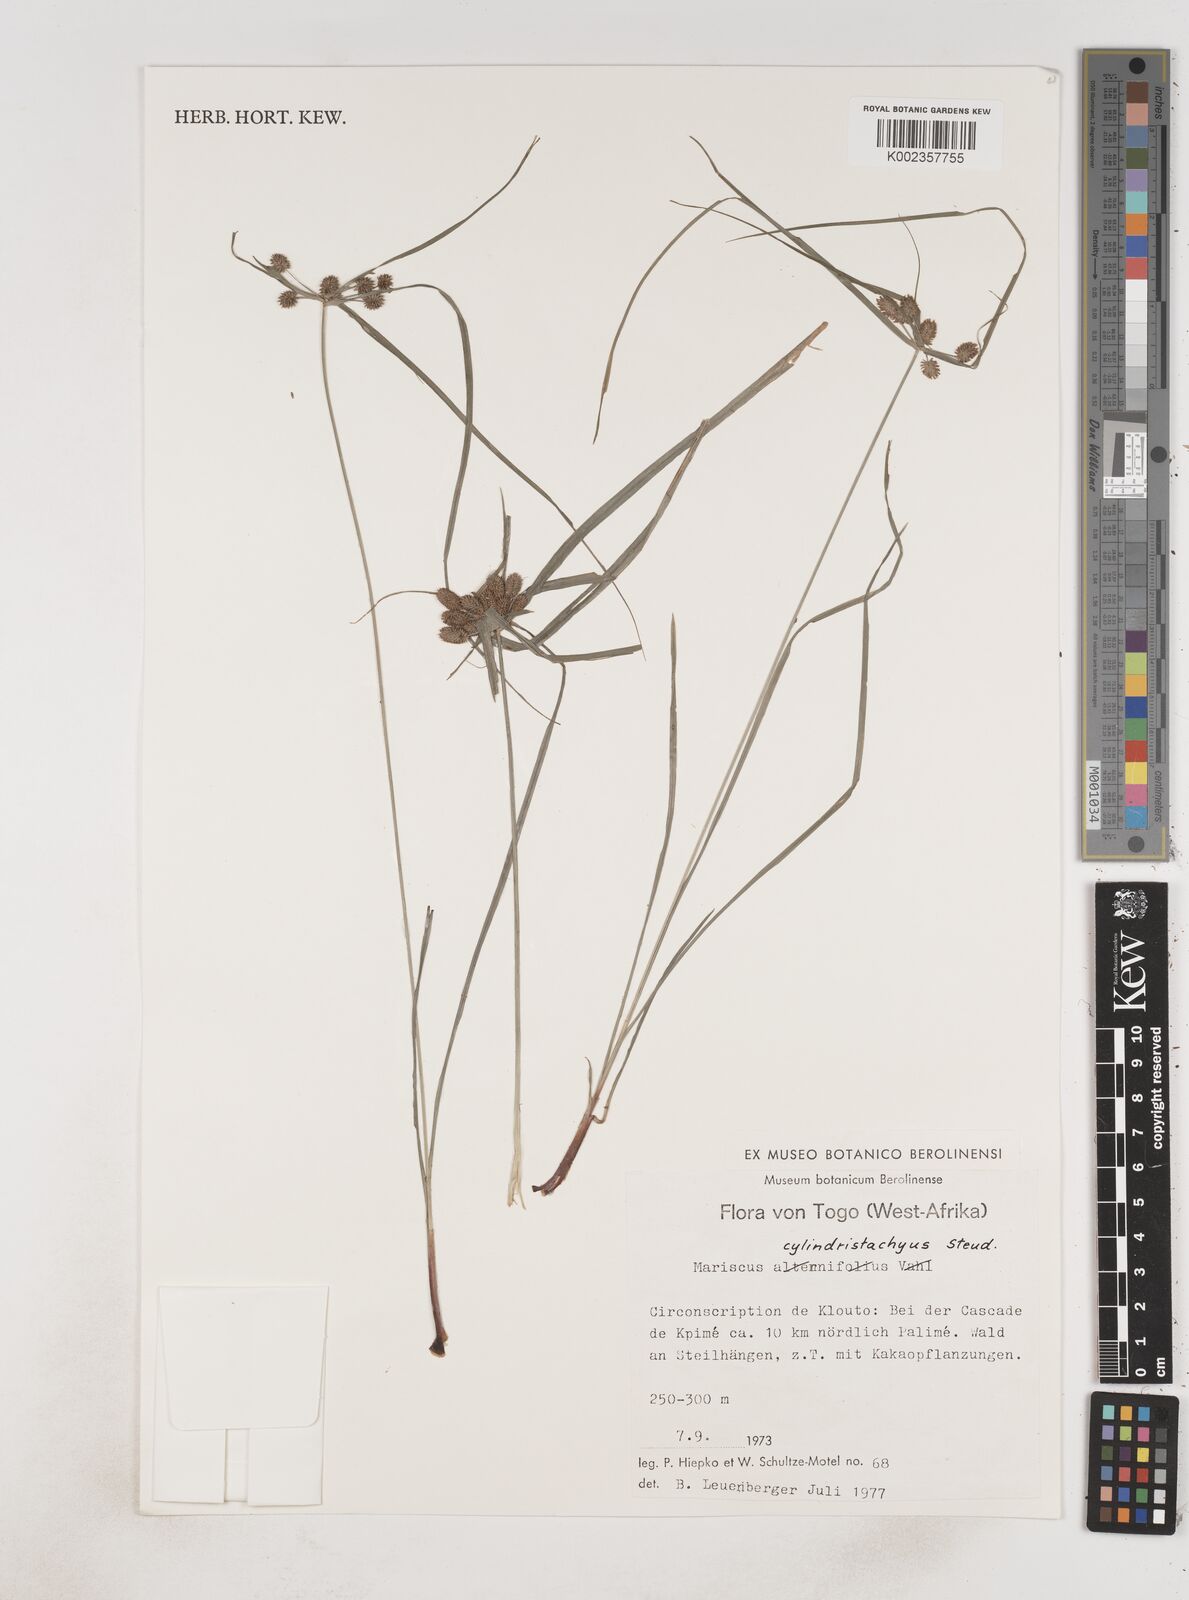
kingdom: Plantae
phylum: Tracheophyta
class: Liliopsida
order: Poales
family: Cyperaceae
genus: Cyperus
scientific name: Cyperus alternifolius
